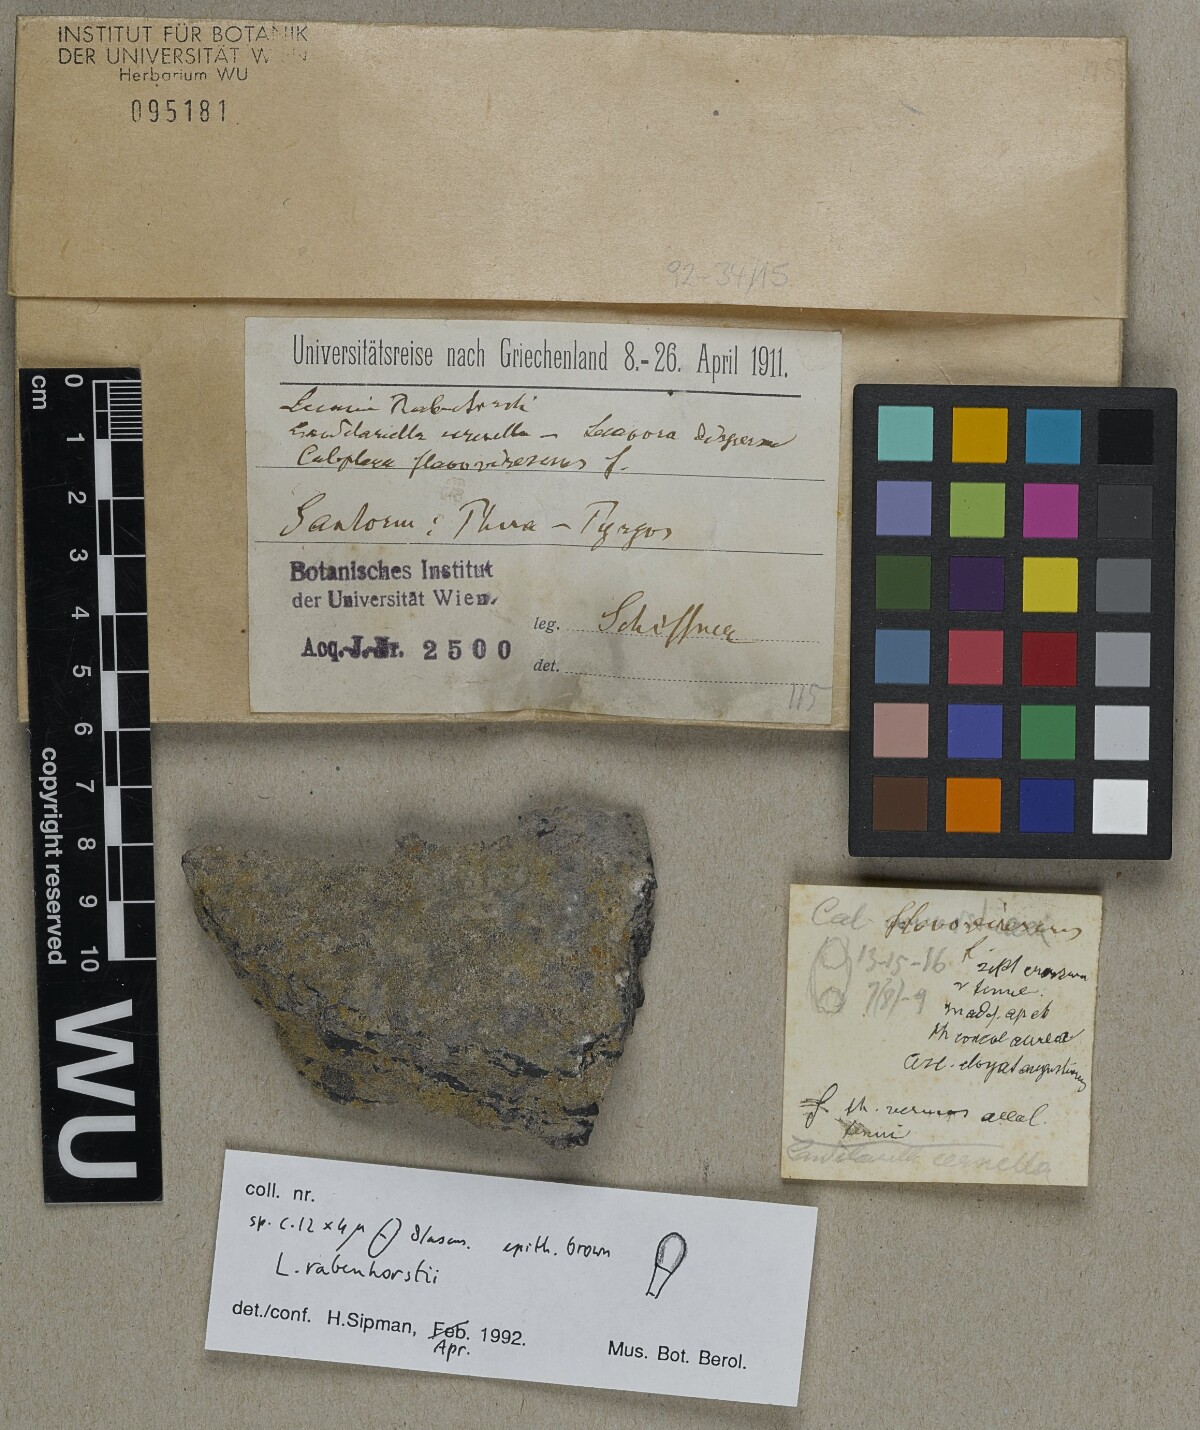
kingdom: Fungi
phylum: Ascomycota
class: Lecanoromycetes
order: Lecanorales
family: Ramalinaceae
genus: Lecania
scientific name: Lecania rabenhorstii
